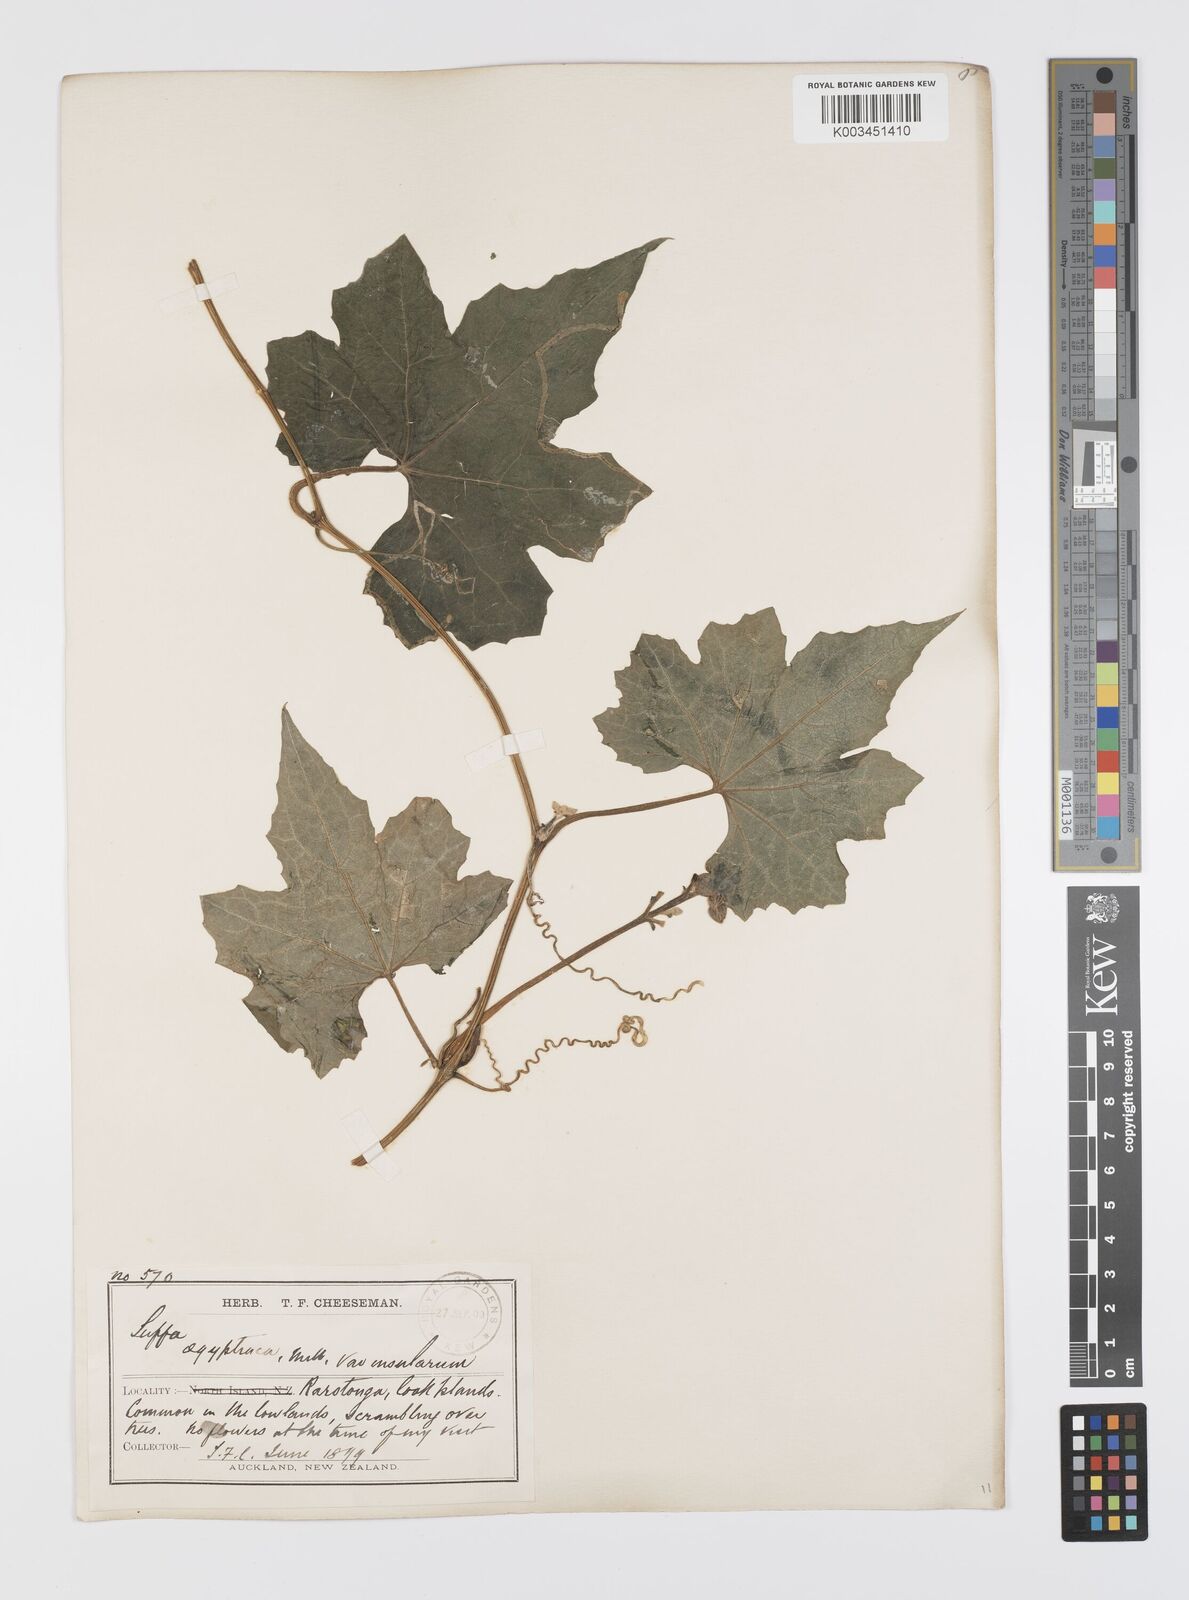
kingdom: Plantae
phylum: Tracheophyta
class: Magnoliopsida
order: Cucurbitales
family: Cucurbitaceae
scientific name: Cucurbitaceae
